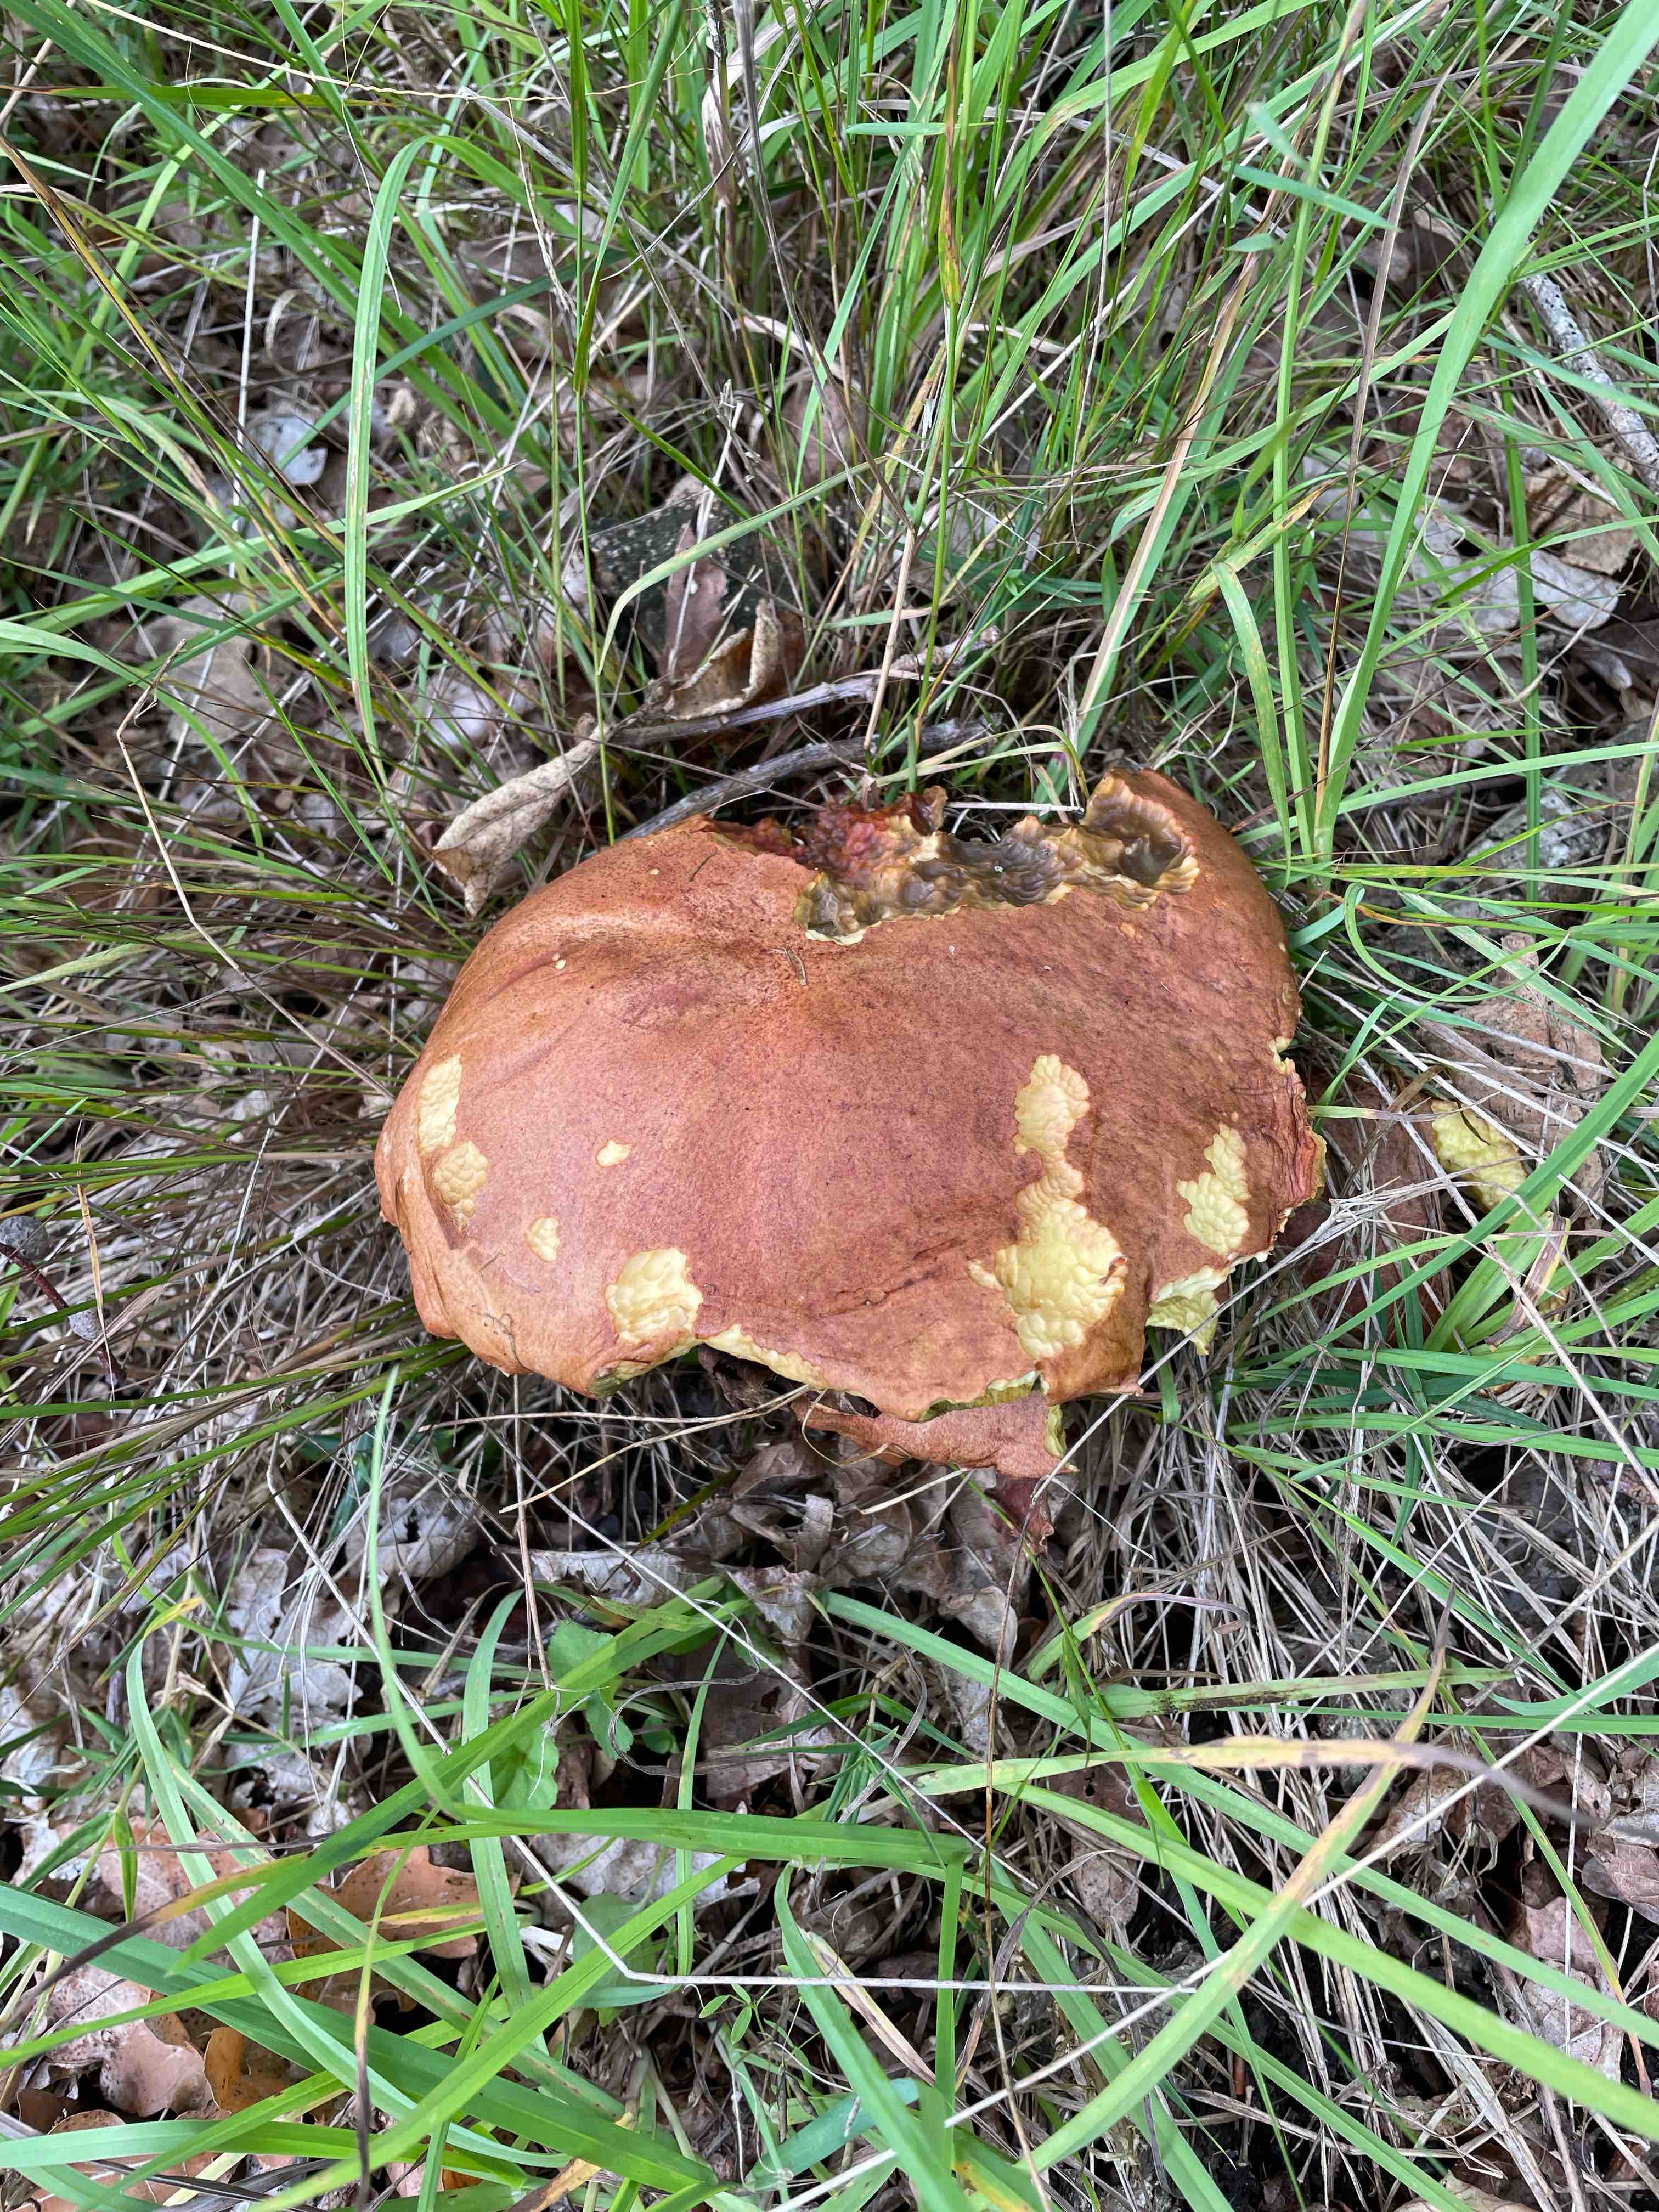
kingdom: Fungi
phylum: Basidiomycota
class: Agaricomycetes
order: Boletales
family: Boletaceae
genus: Butyriboletus
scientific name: Butyriboletus appendiculatus
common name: tenstokket rørhat
